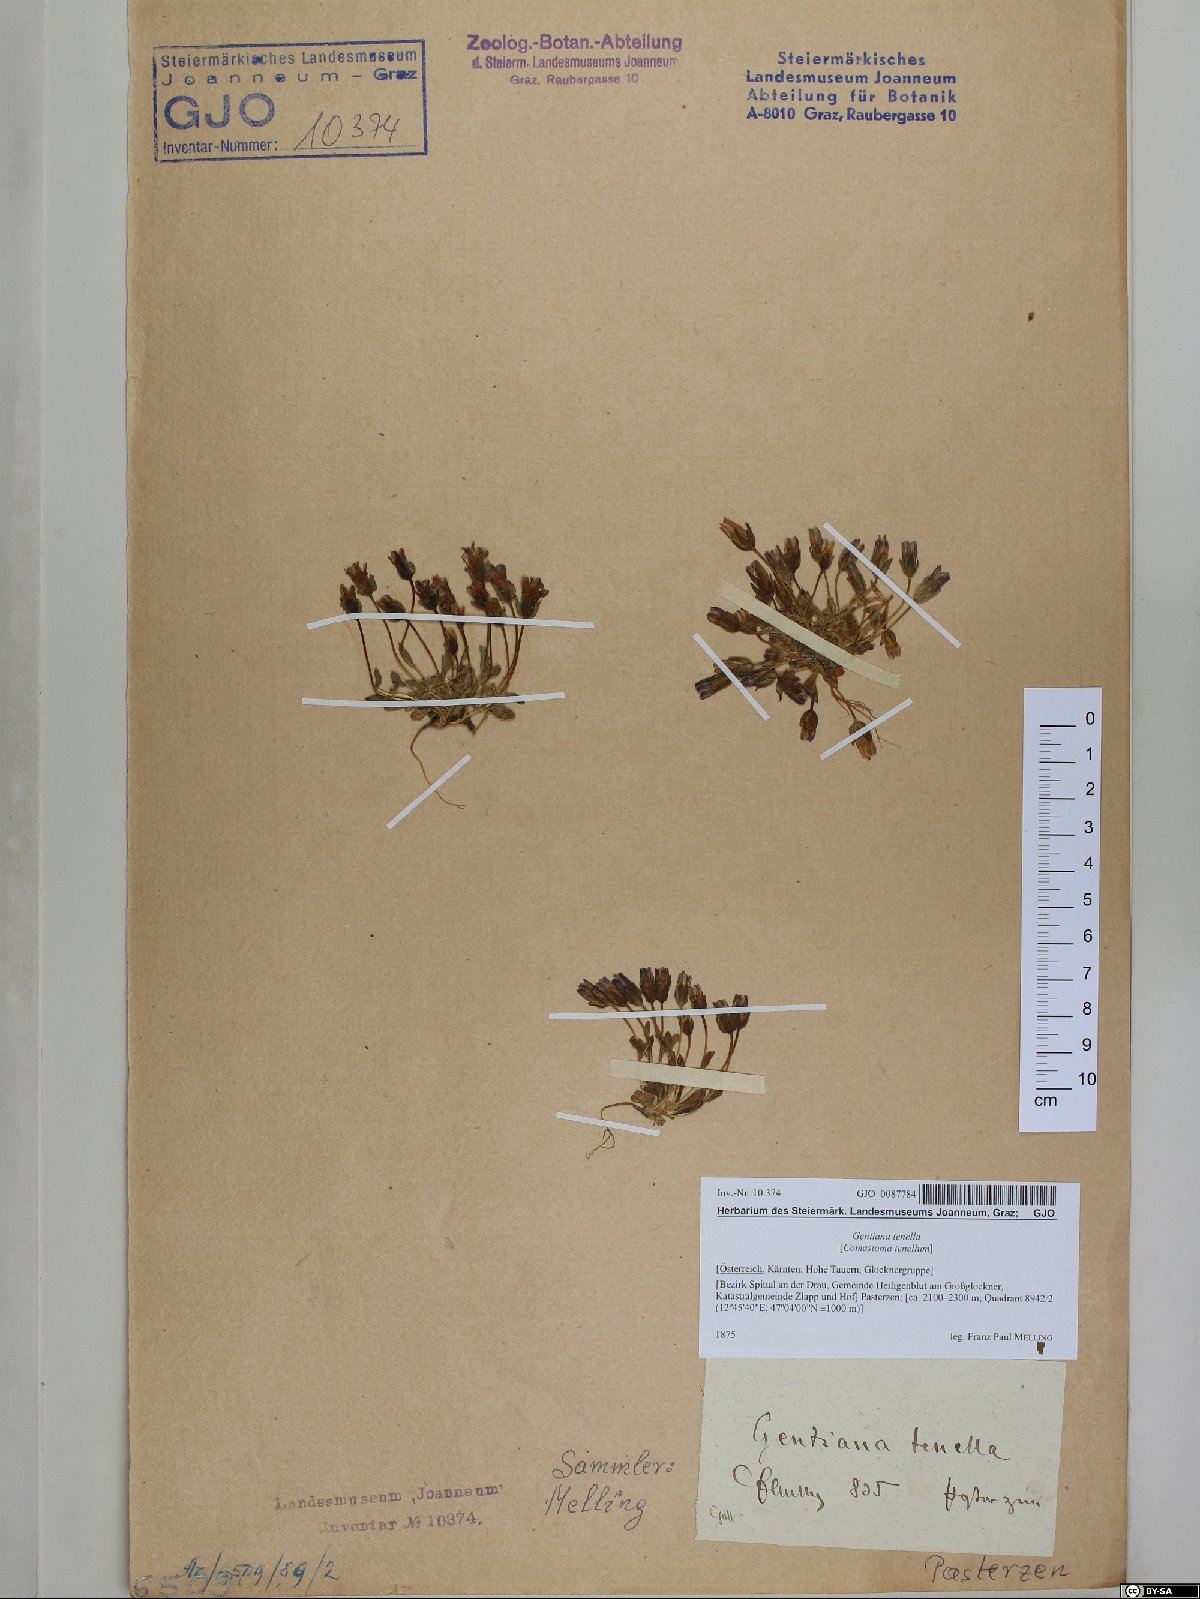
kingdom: Plantae
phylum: Tracheophyta
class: Magnoliopsida
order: Gentianales
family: Gentianaceae
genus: Comastoma
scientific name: Comastoma tenellum
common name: Dane's dwarf gentian
